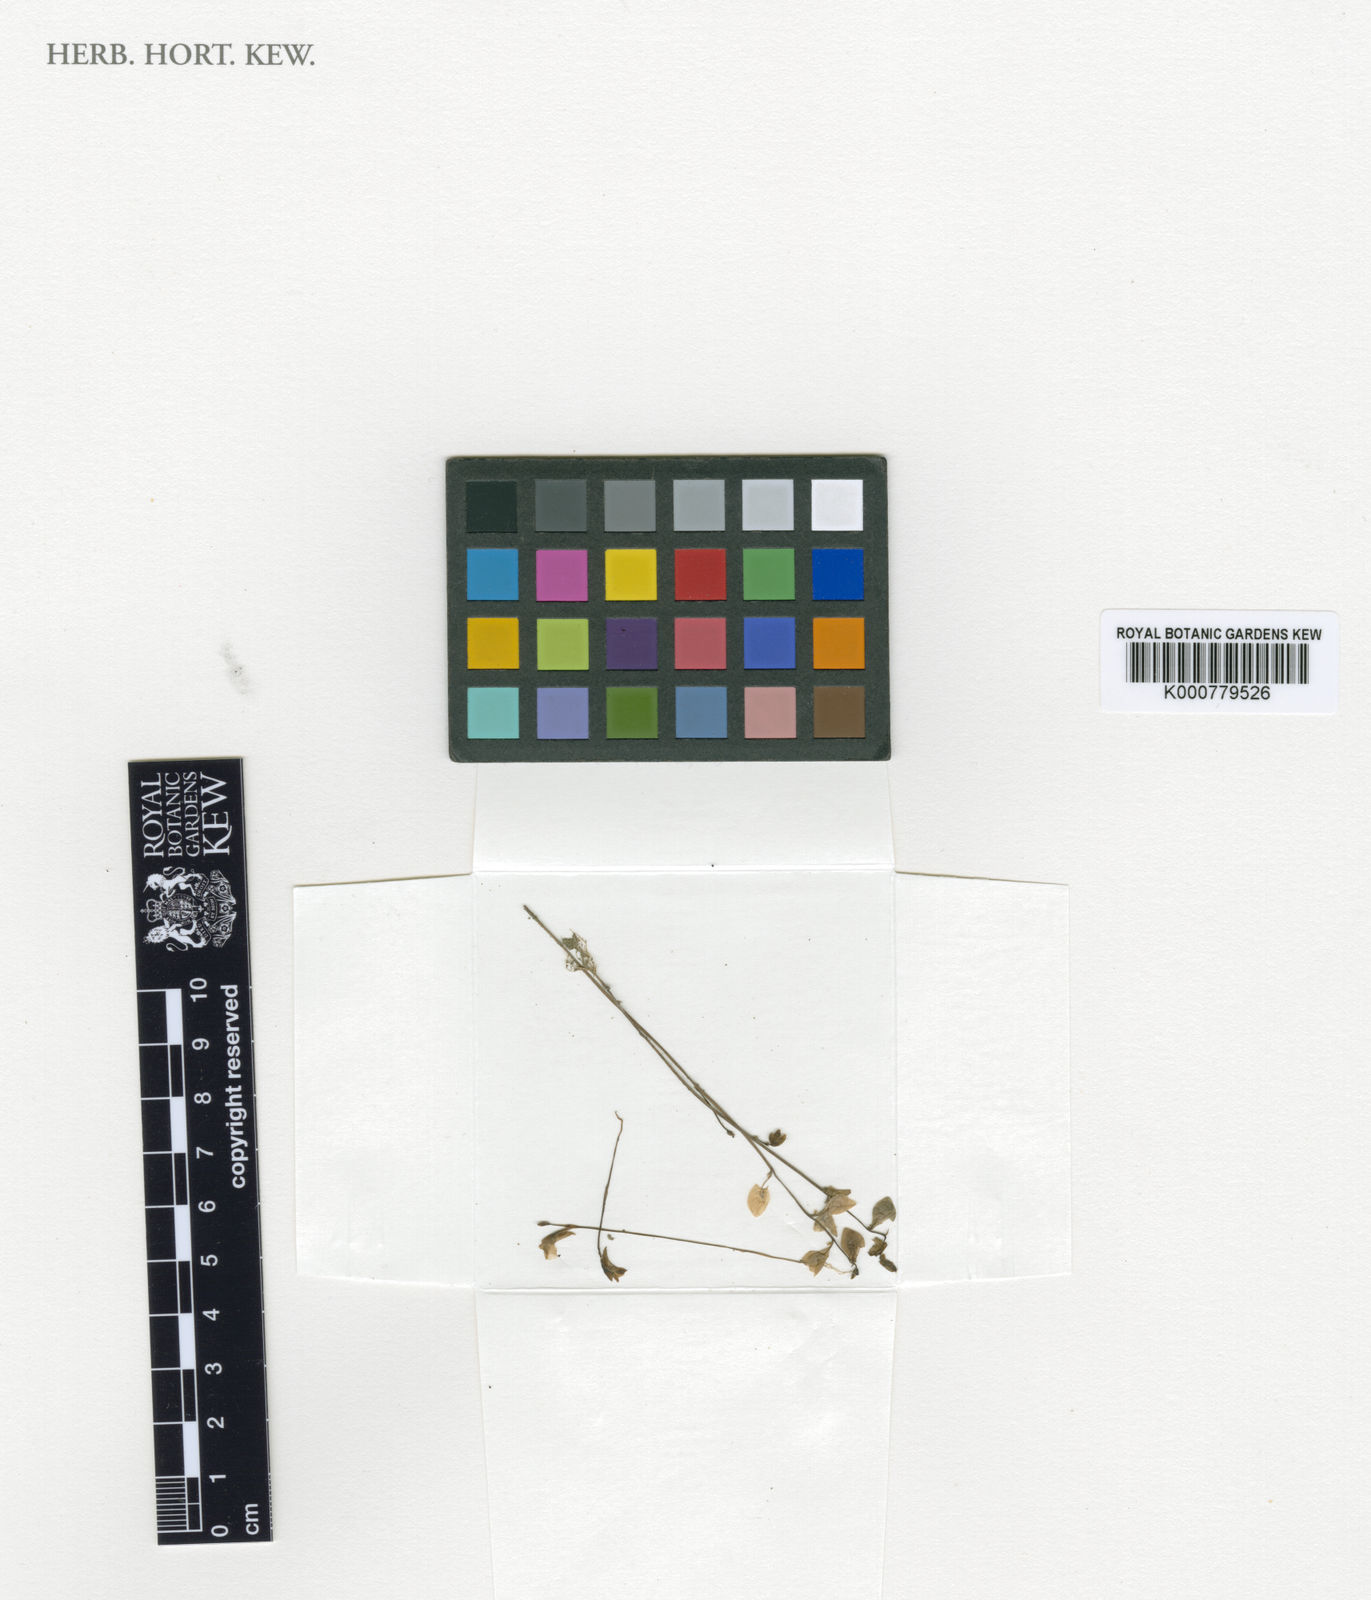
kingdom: Plantae
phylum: Tracheophyta
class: Magnoliopsida
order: Lamiales
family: Lentibulariaceae
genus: Utricularia
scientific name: Utricularia bifida
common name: Bifid bladderwort
